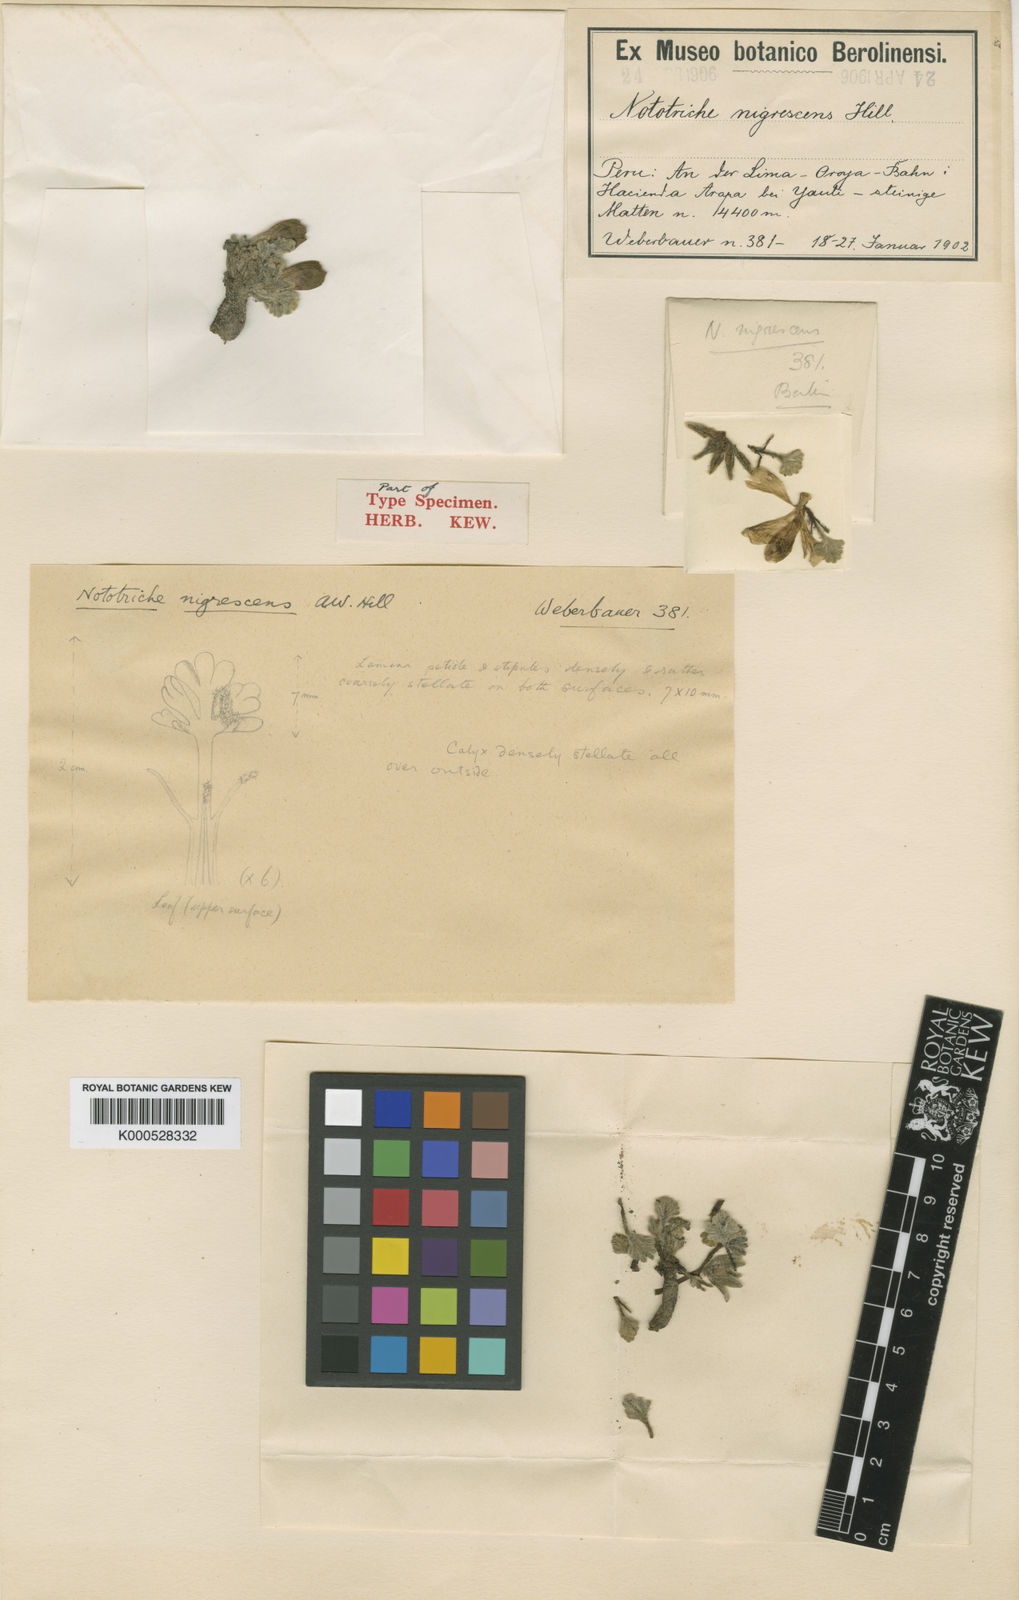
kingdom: Plantae
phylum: Tracheophyta
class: Magnoliopsida
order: Malvales
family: Malvaceae
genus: Nototriche
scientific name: Nototriche nigrescens
